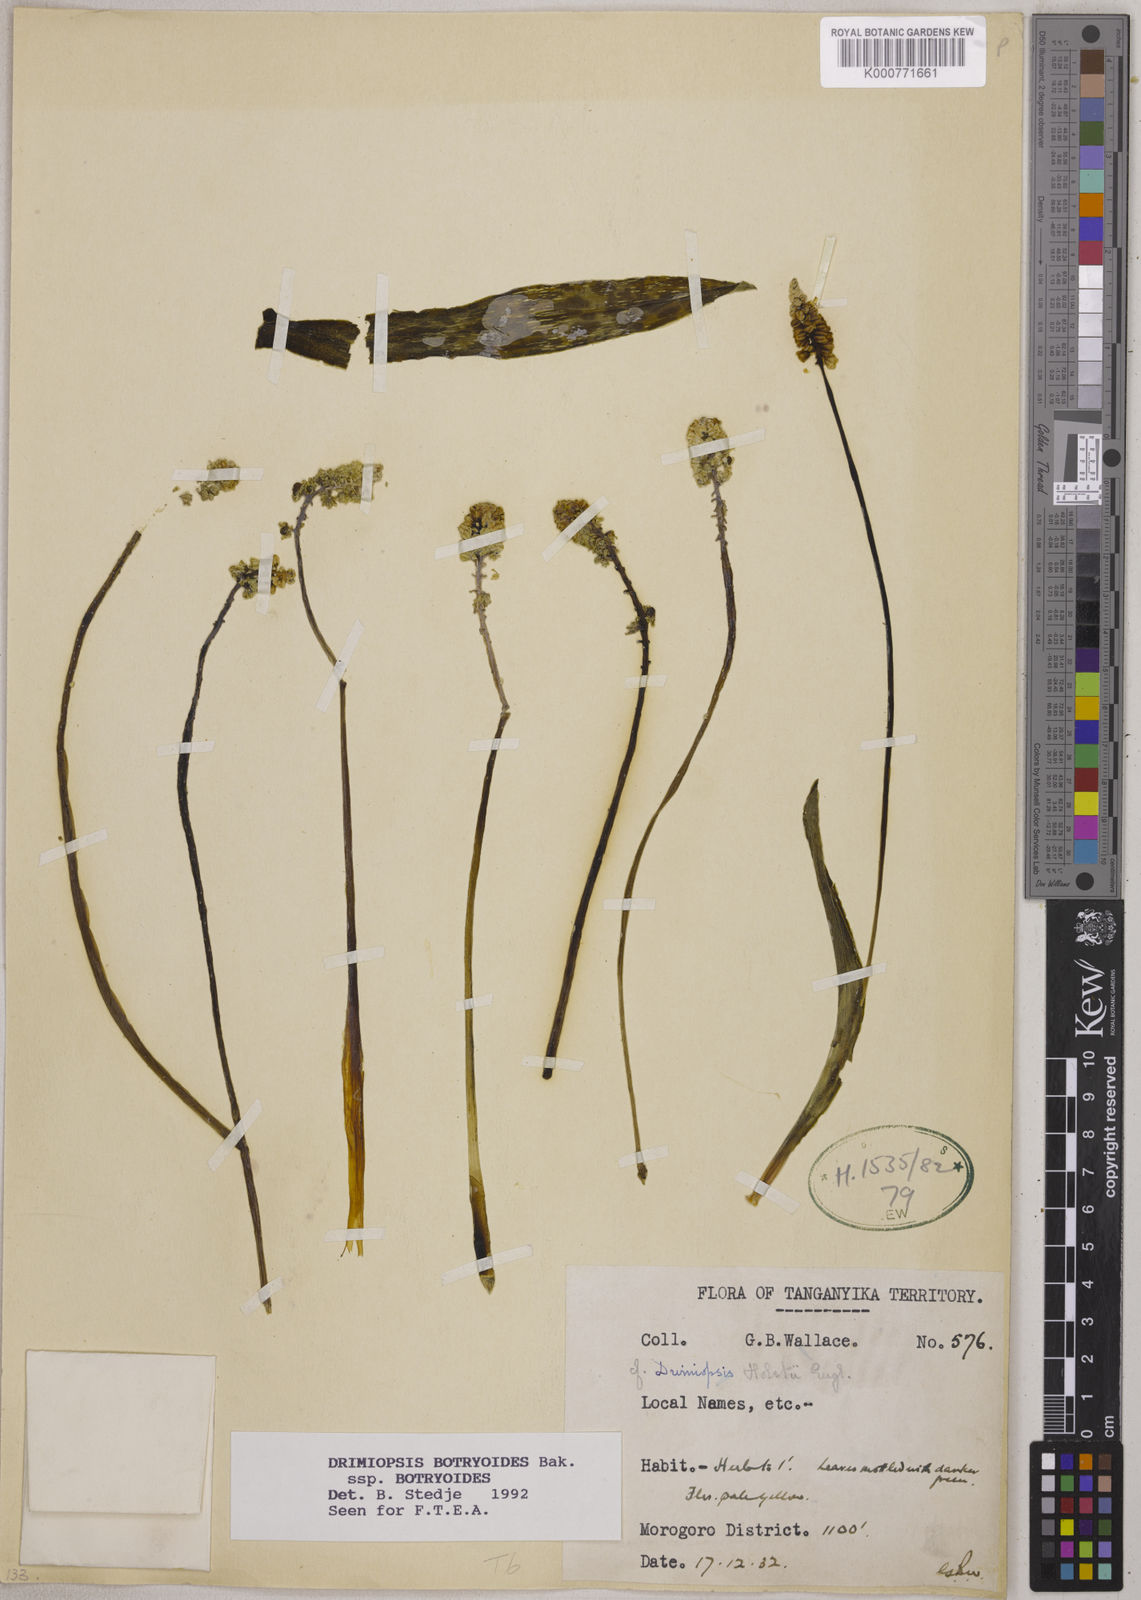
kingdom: Plantae
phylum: Tracheophyta
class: Liliopsida
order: Asparagales
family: Asparagaceae
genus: Drimiopsis
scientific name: Drimiopsis botryoides
